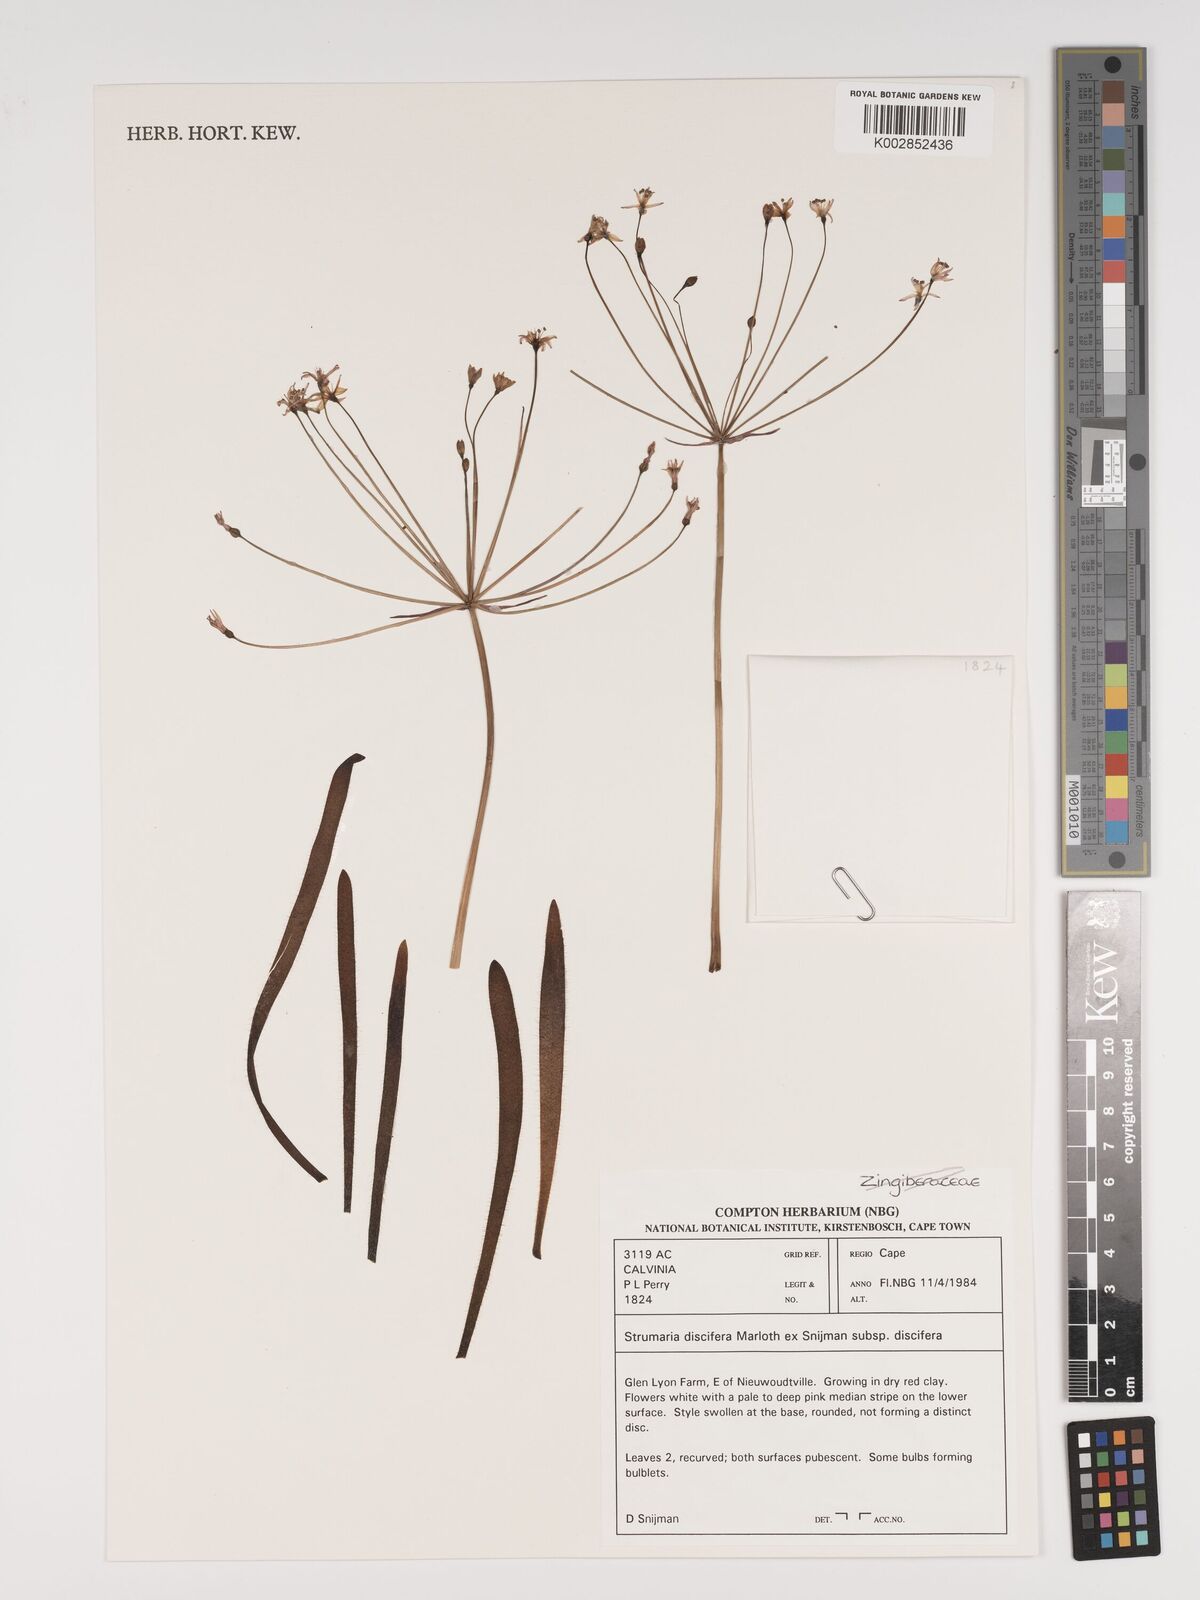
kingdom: Plantae
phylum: Tracheophyta
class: Liliopsida
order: Asparagales
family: Amaryllidaceae
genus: Strumaria
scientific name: Strumaria discifera
